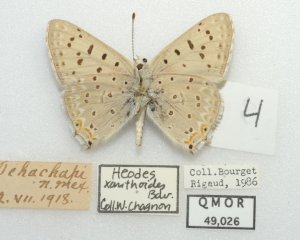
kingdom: Animalia
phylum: Arthropoda
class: Insecta
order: Lepidoptera
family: Lycaenidae
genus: Lycaena
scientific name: Lycaena xanthoides
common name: Great Copper
